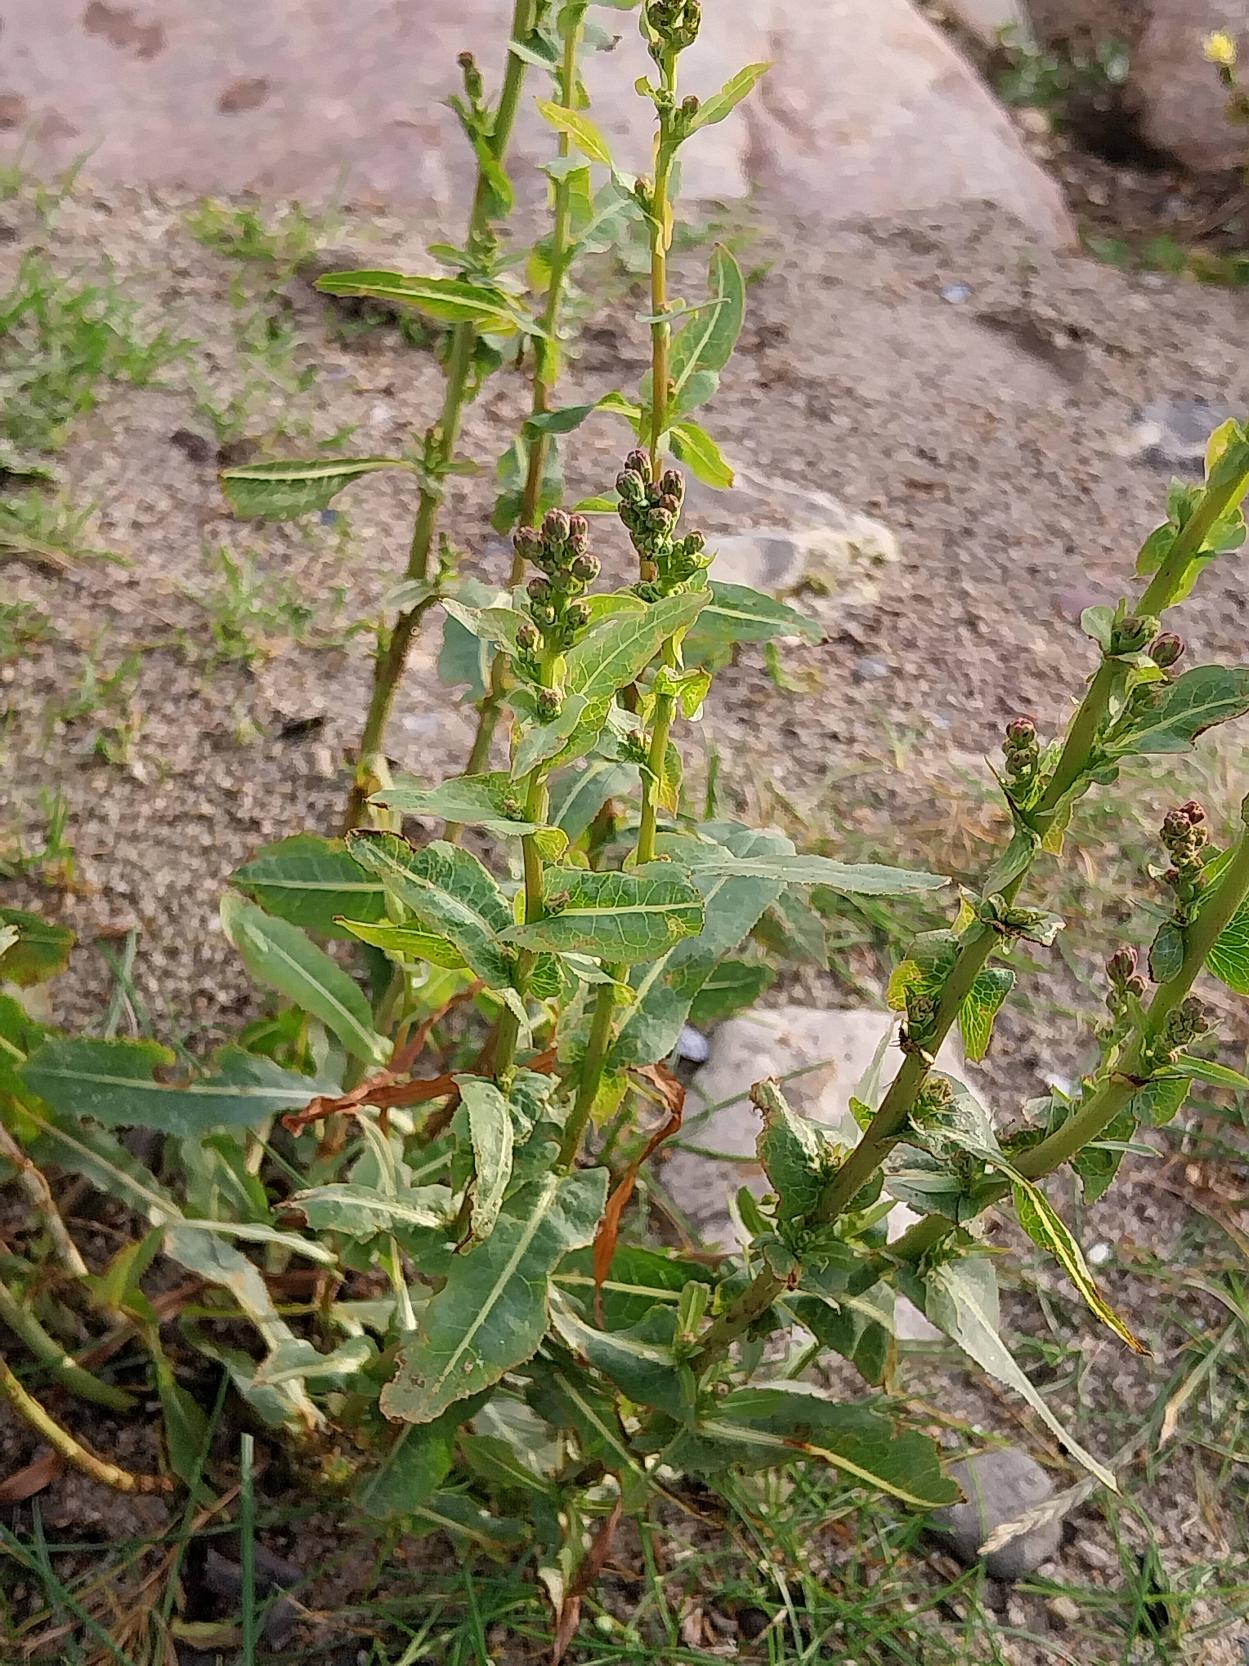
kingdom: Plantae
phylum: Tracheophyta
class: Magnoliopsida
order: Asterales
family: Asteraceae
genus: Cichorium
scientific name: Cichorium intybus
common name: Cikorie
